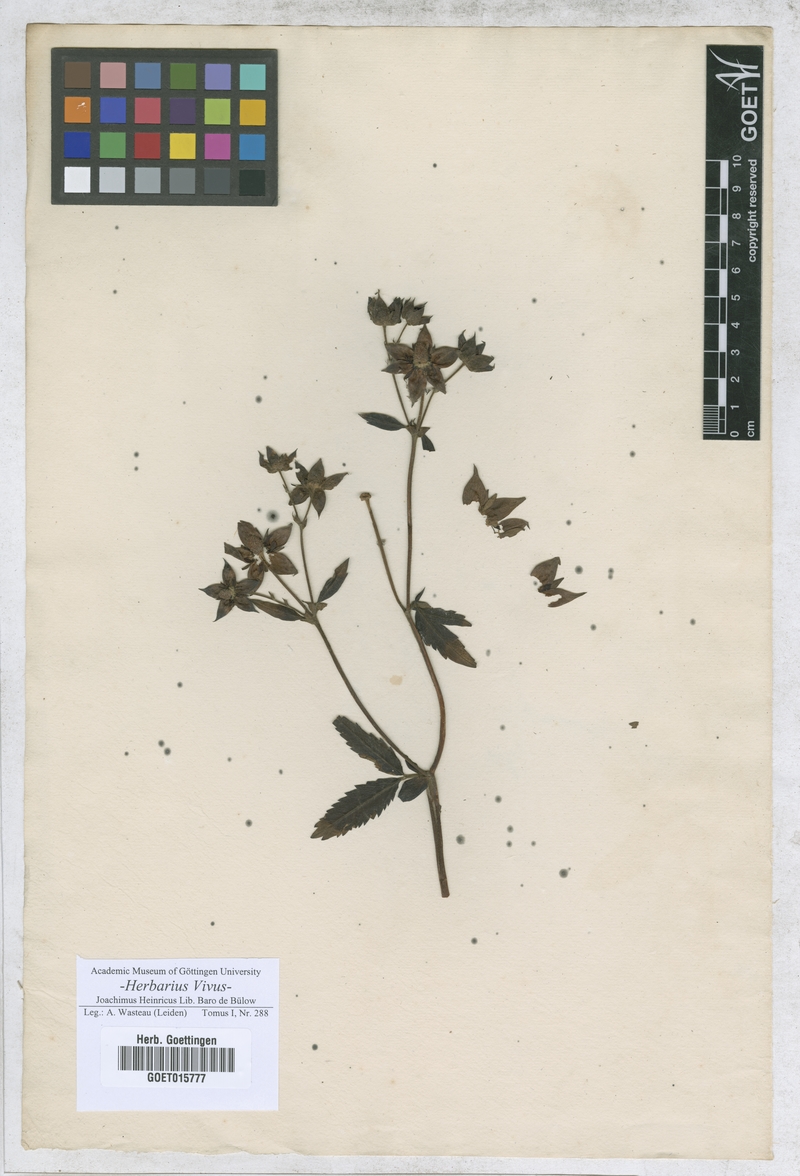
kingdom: Plantae
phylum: Tracheophyta
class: Magnoliopsida
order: Rosales
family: Rosaceae
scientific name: Rosaceae
